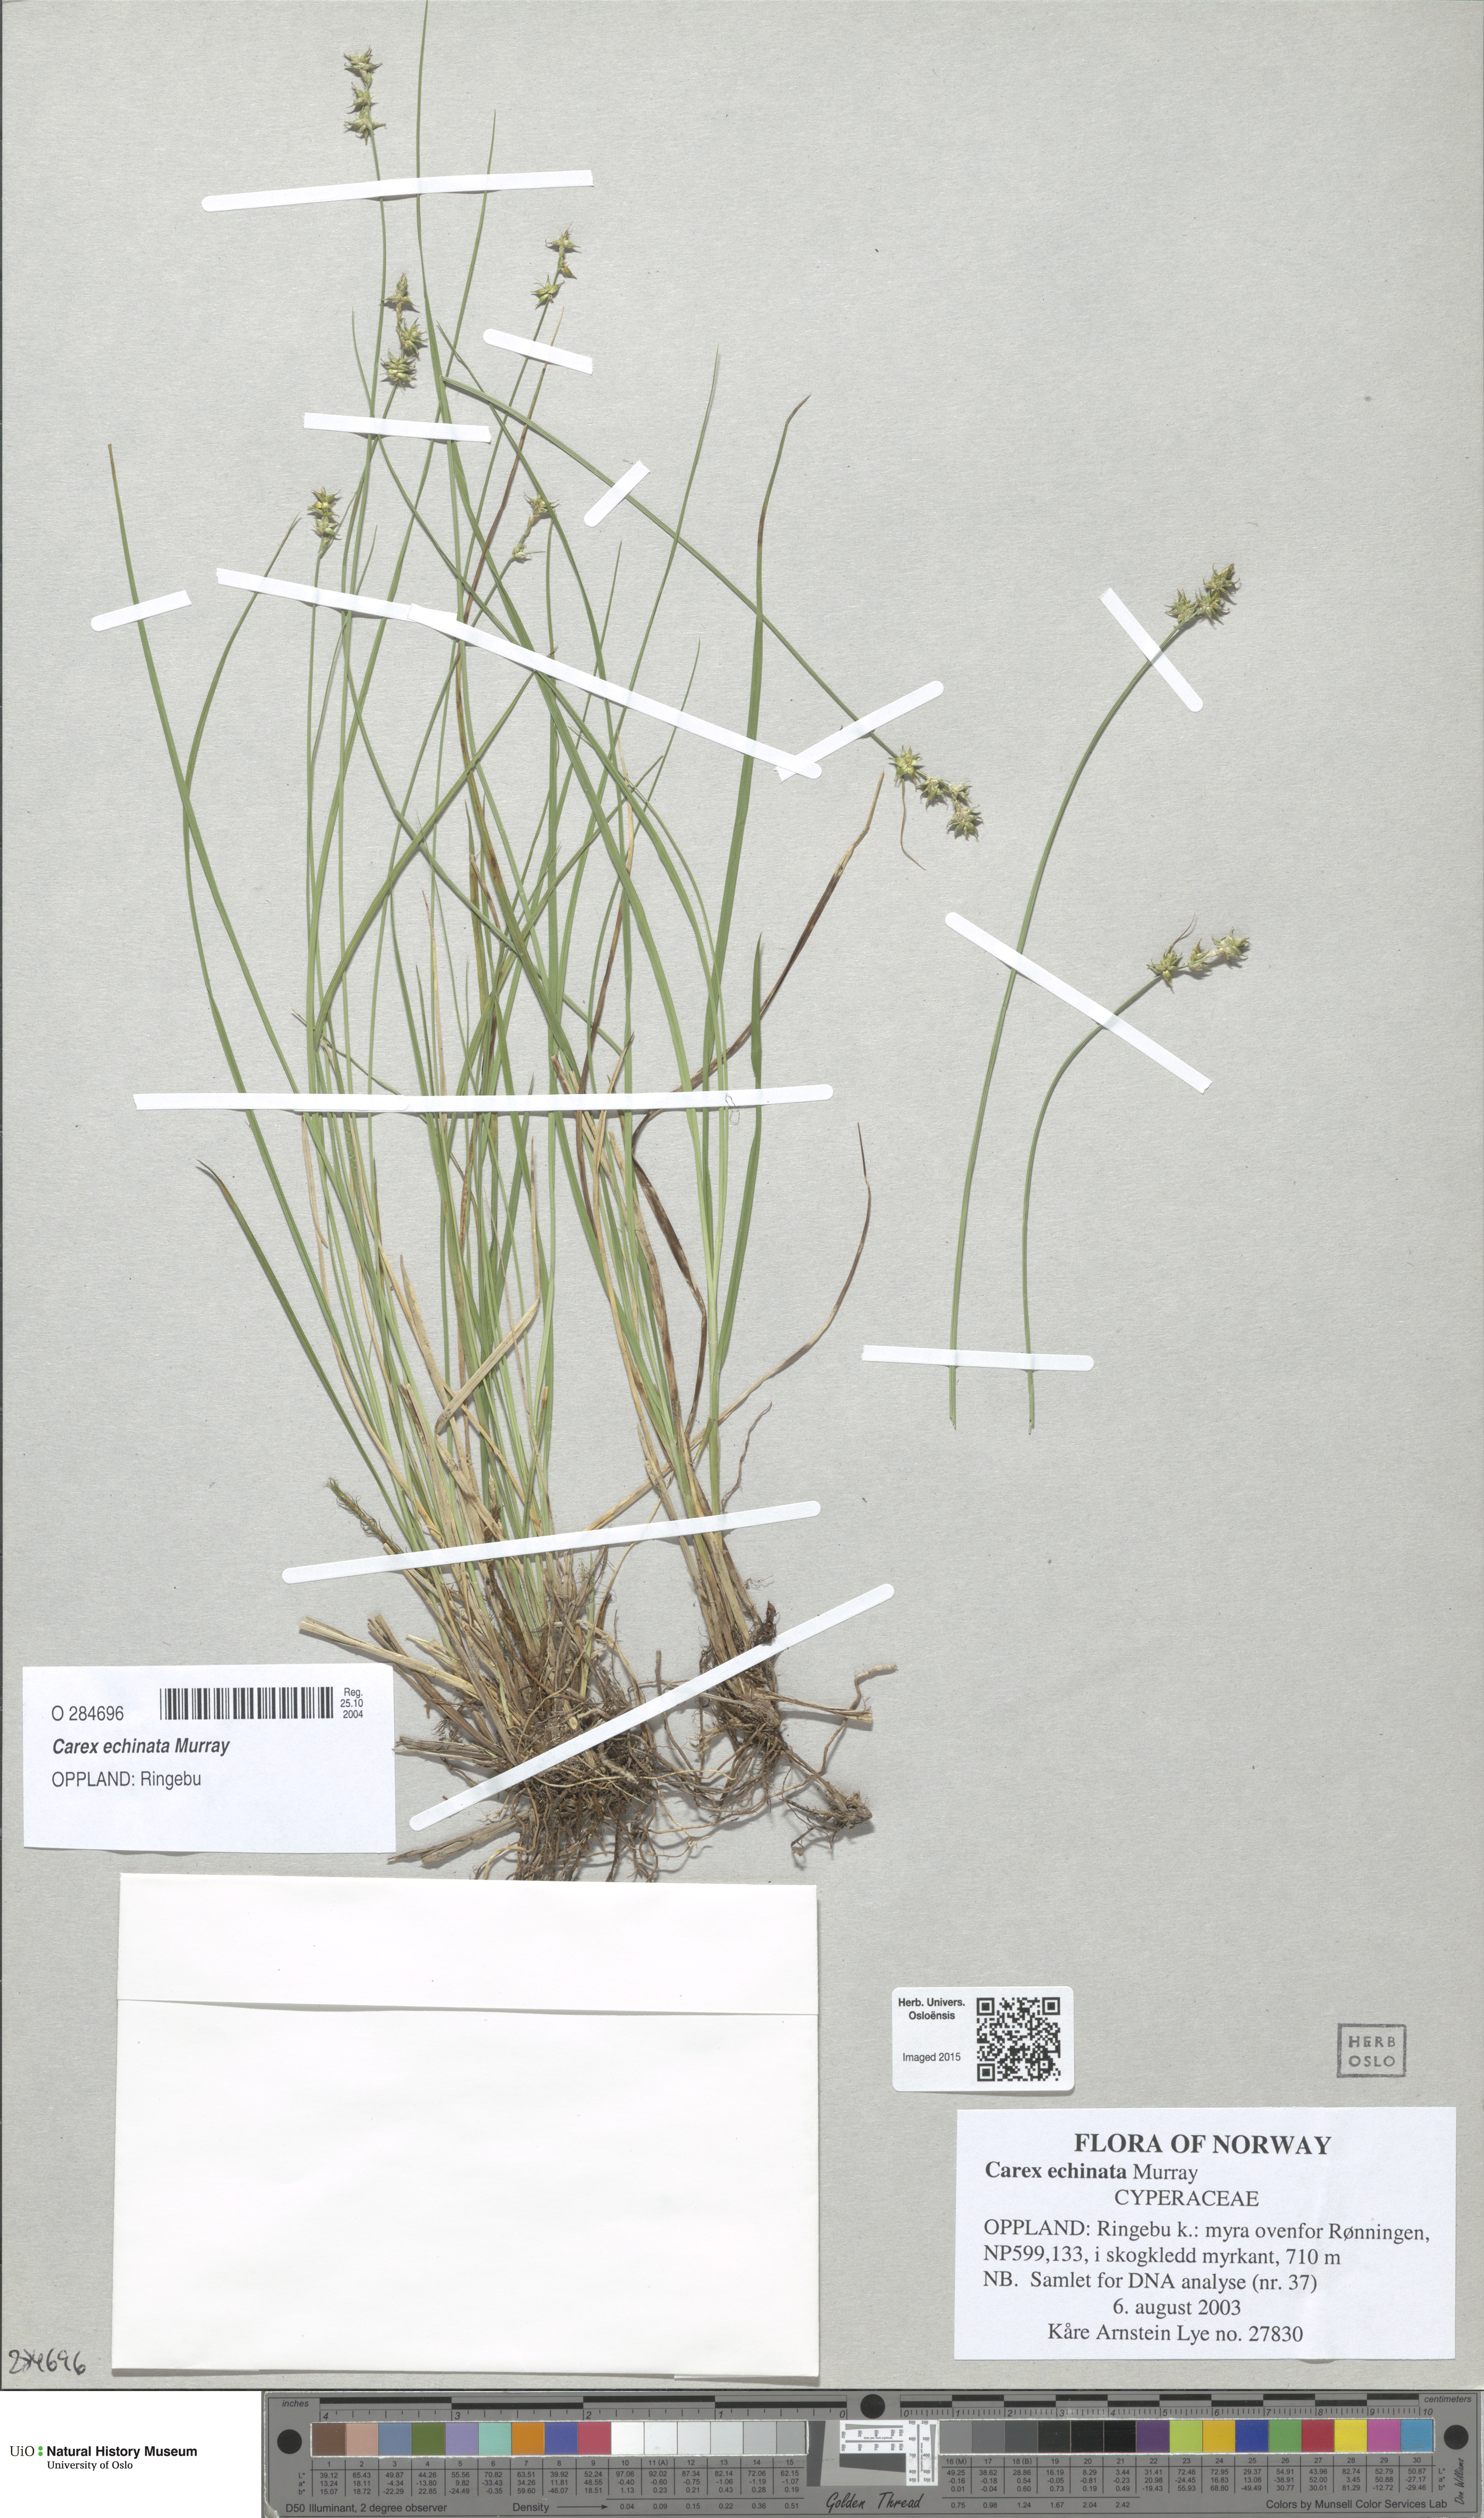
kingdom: Plantae
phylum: Tracheophyta
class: Liliopsida
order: Poales
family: Cyperaceae
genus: Carex
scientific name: Carex echinata
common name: Star sedge
